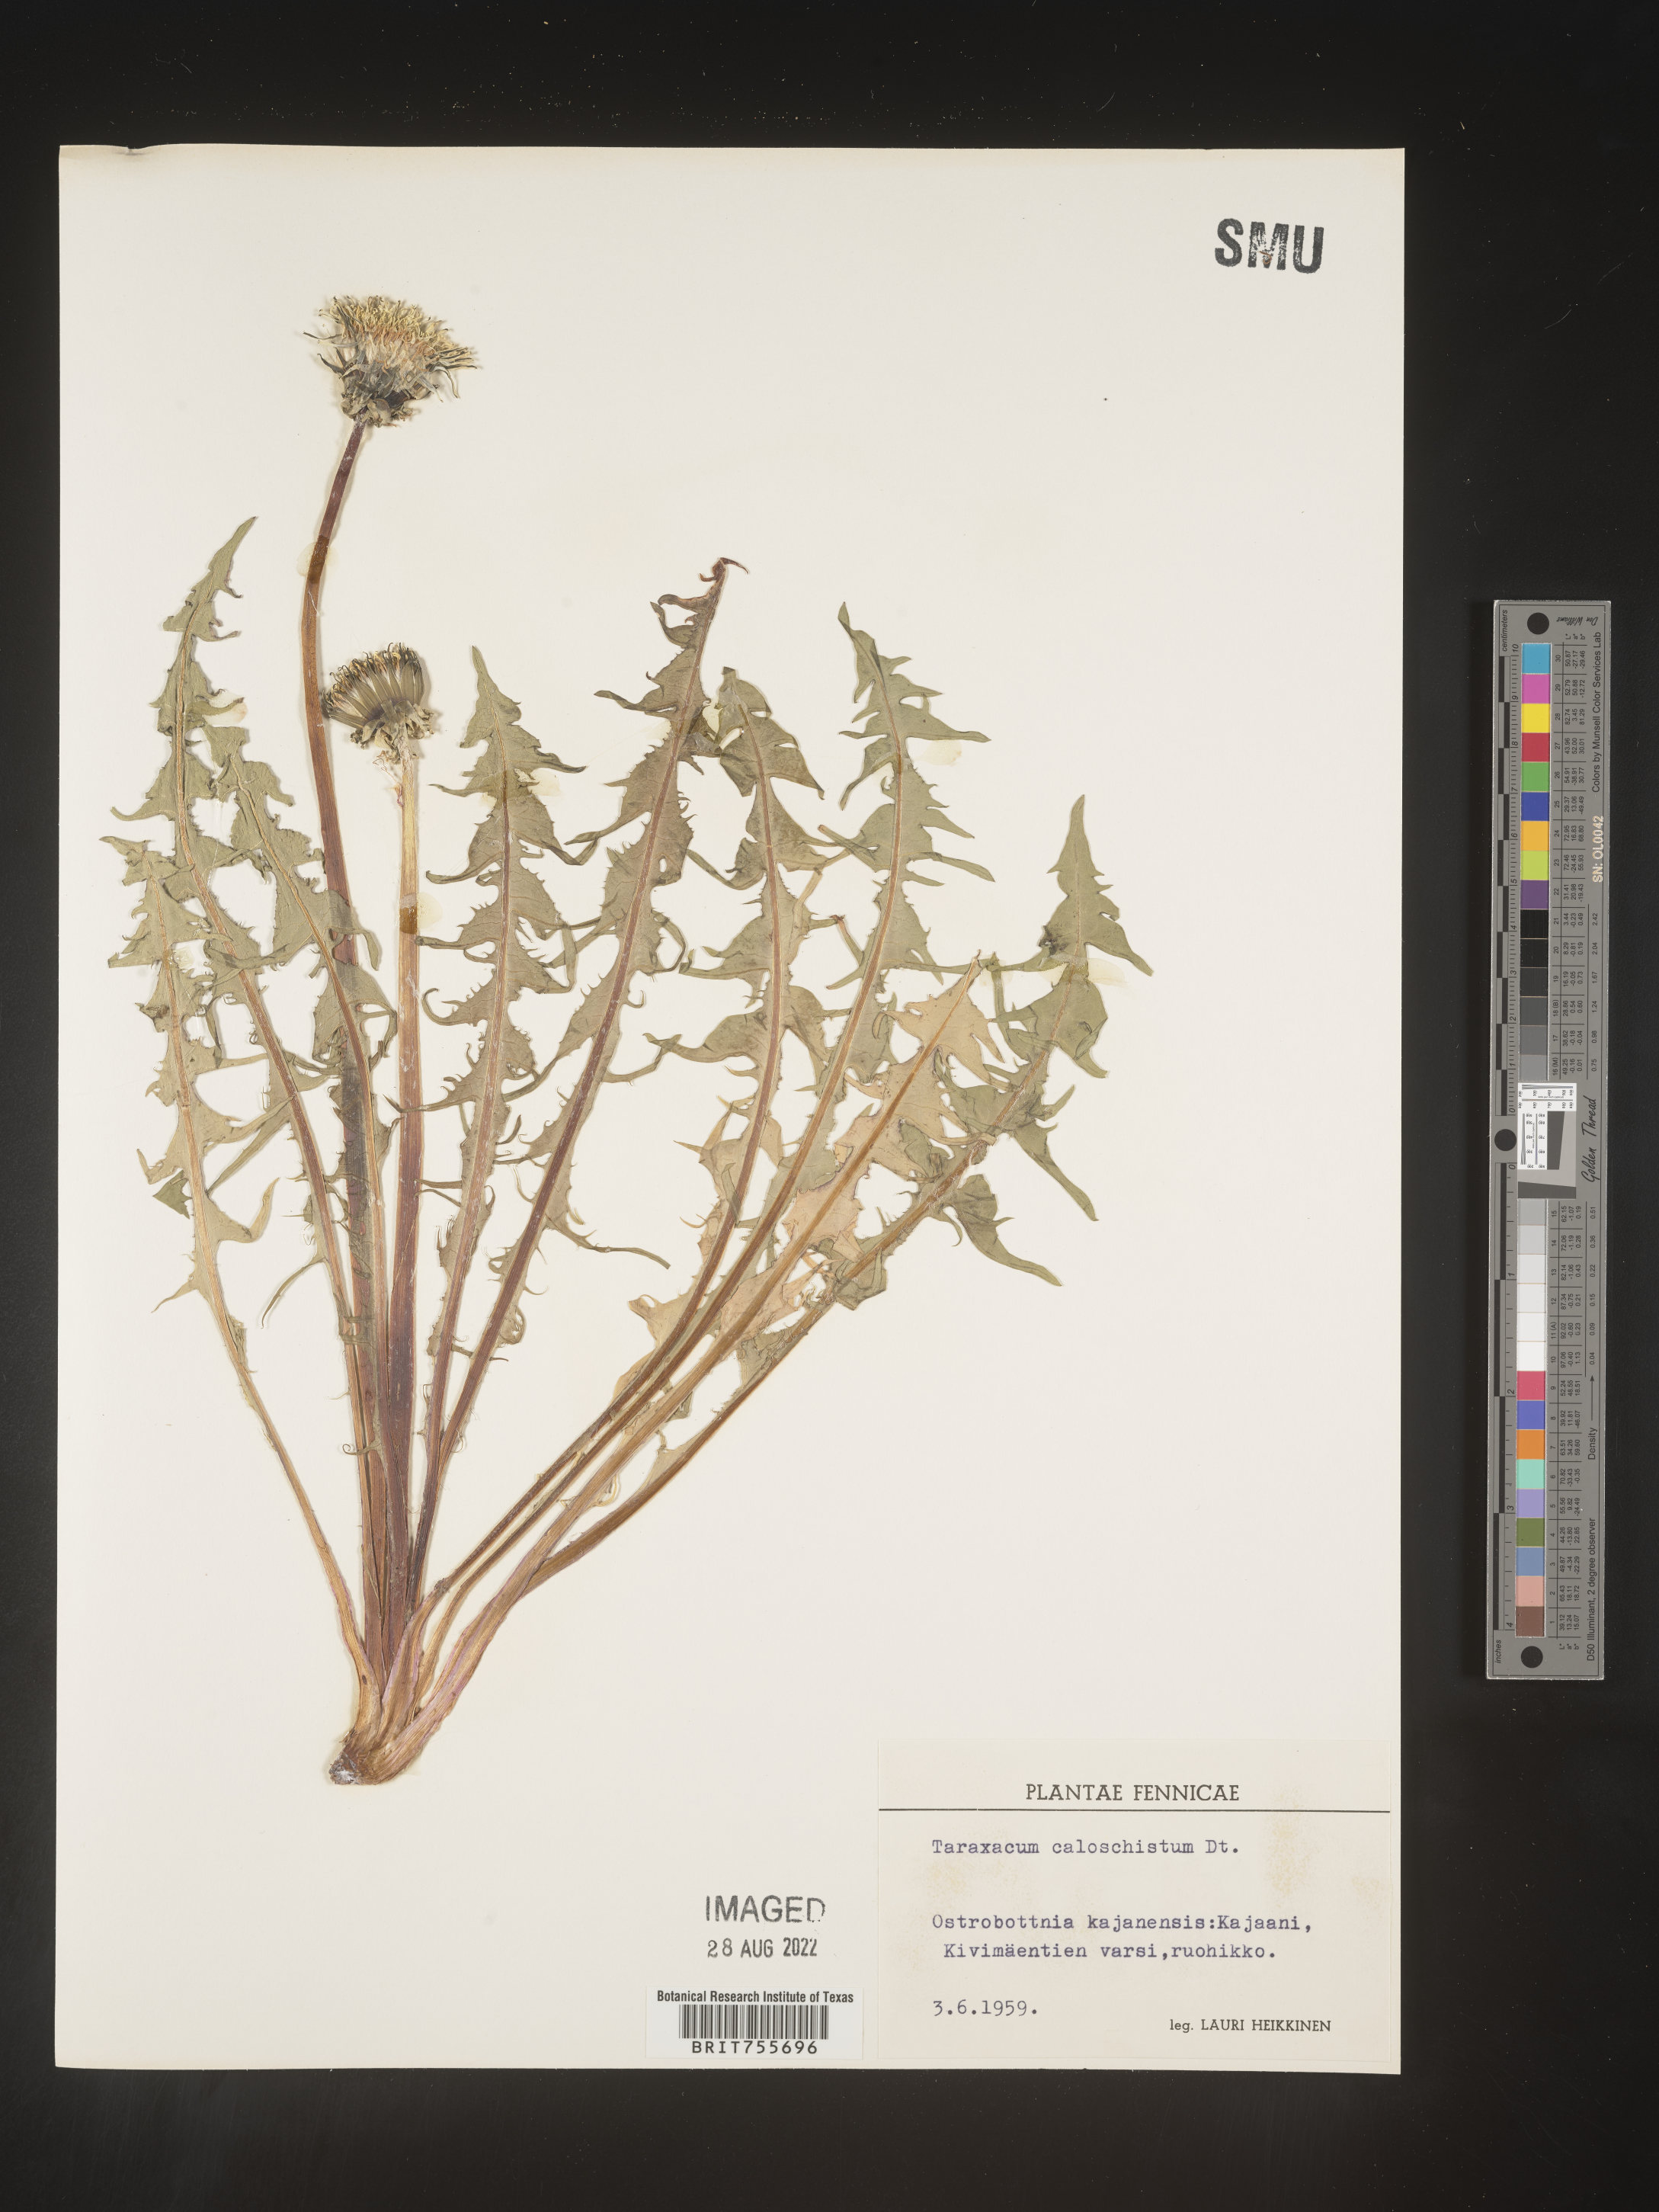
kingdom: Plantae
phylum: Tracheophyta
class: Magnoliopsida
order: Asterales
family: Asteraceae
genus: Taraxacum
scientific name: Taraxacum
